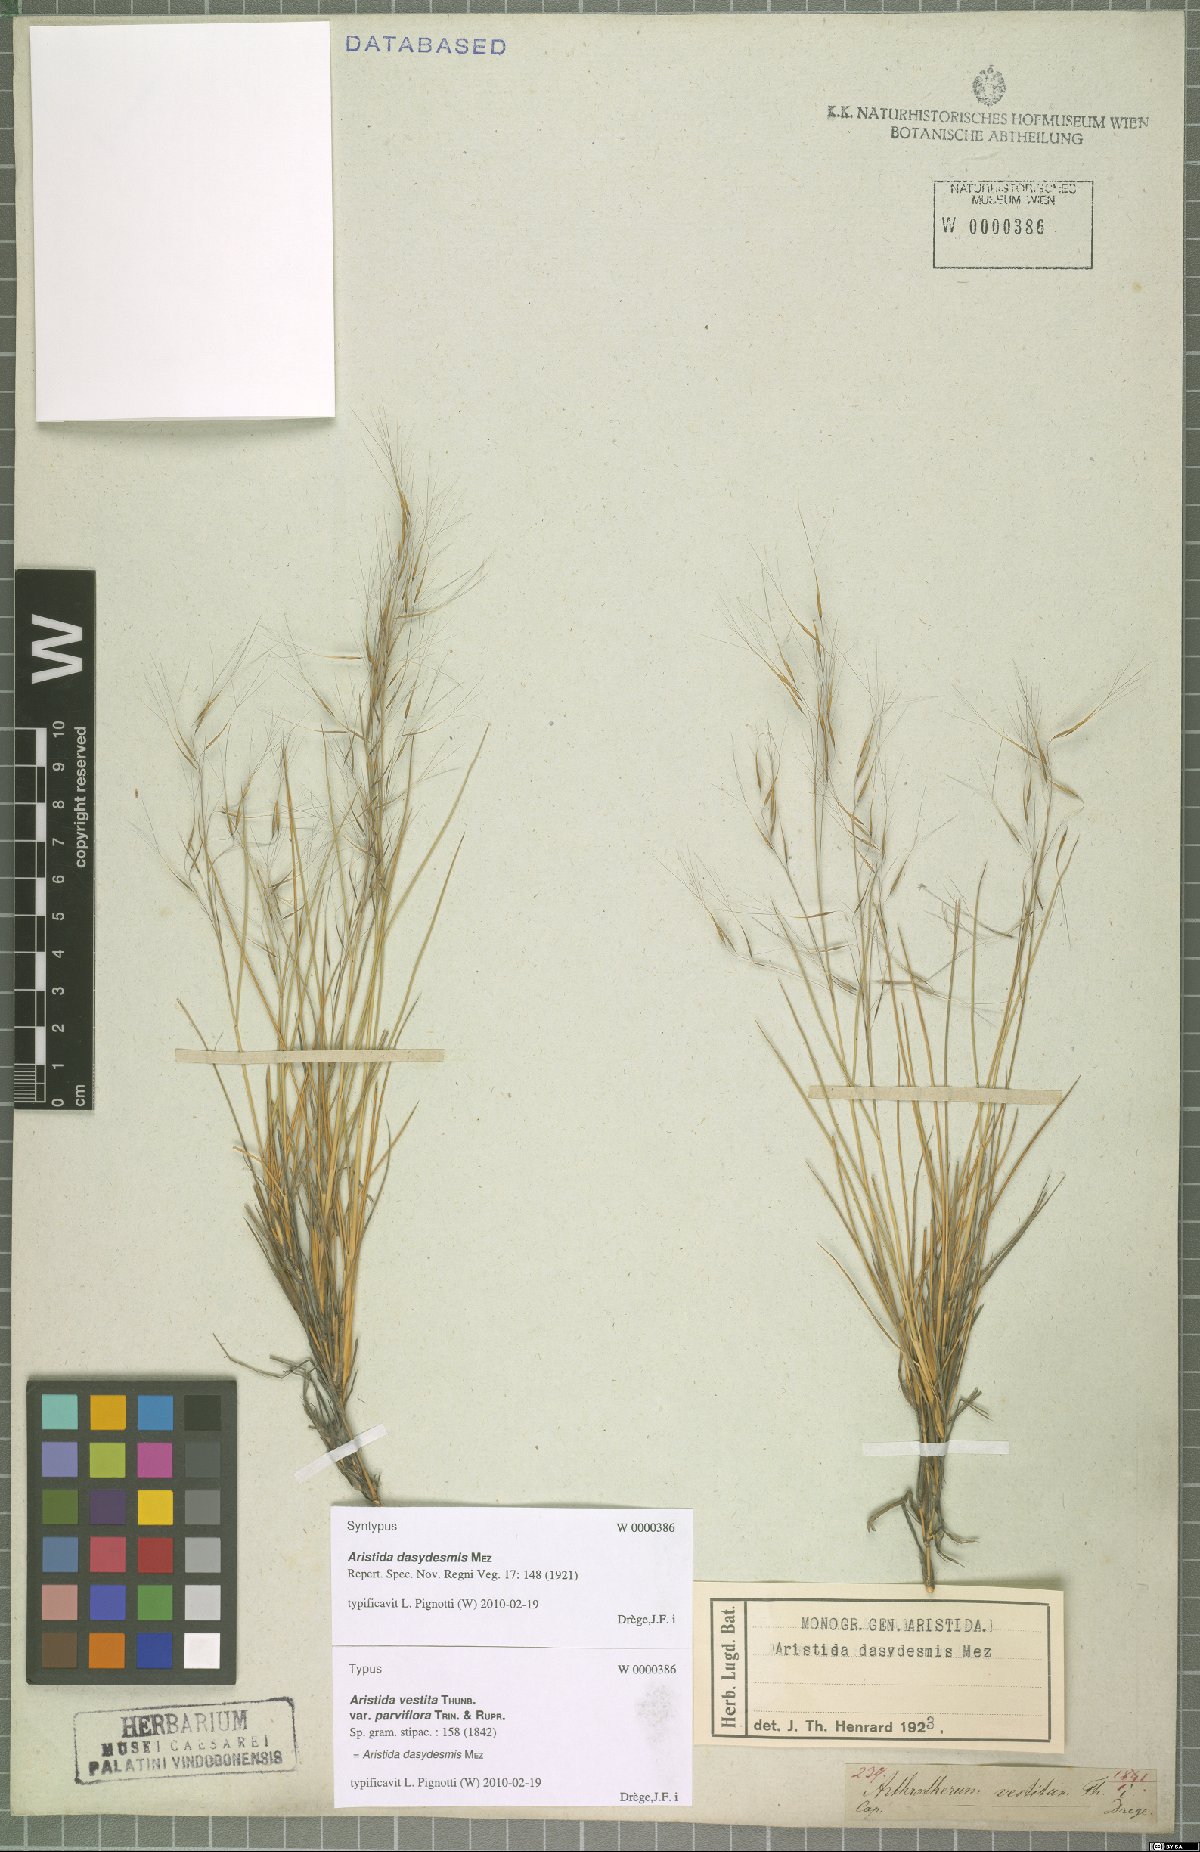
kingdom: Plantae
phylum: Tracheophyta
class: Liliopsida
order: Poales
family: Poaceae
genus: Aristida
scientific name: Aristida dasydesmis
